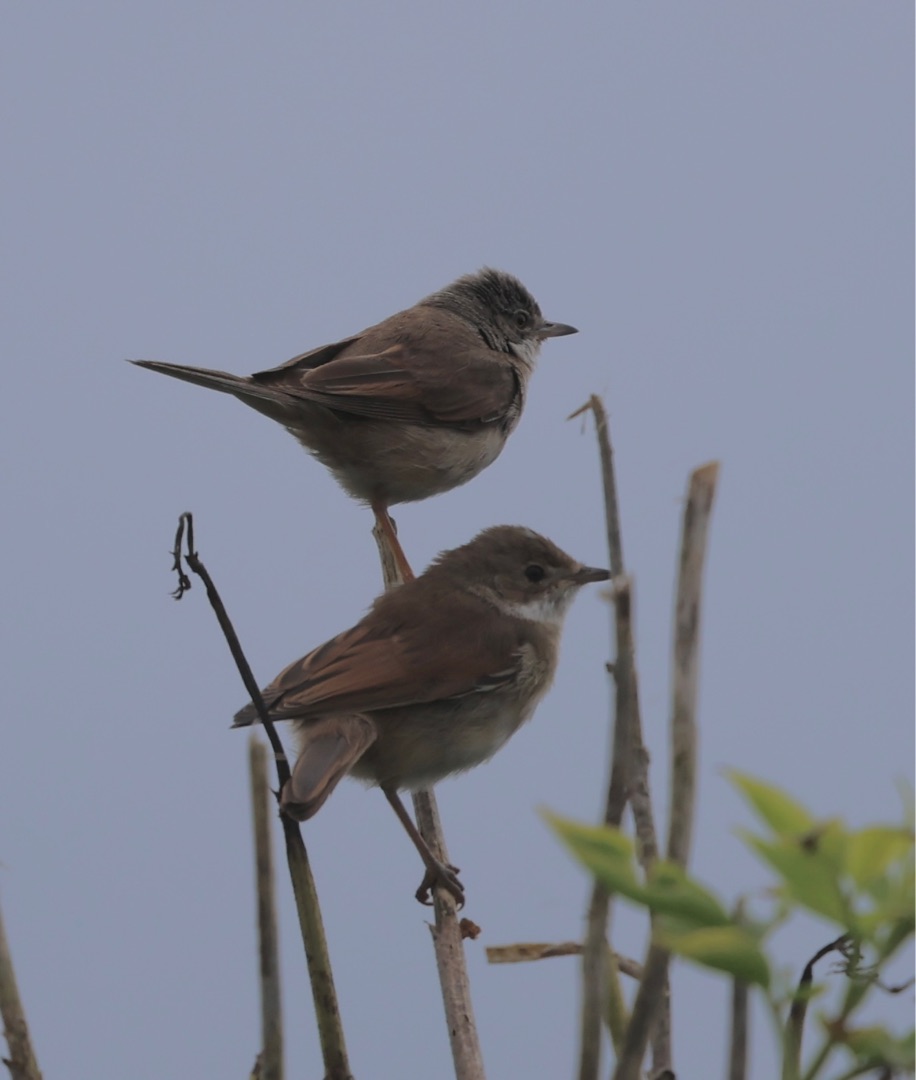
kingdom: Animalia
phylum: Chordata
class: Aves
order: Passeriformes
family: Sylviidae
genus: Sylvia
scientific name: Sylvia communis
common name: Tornsanger
